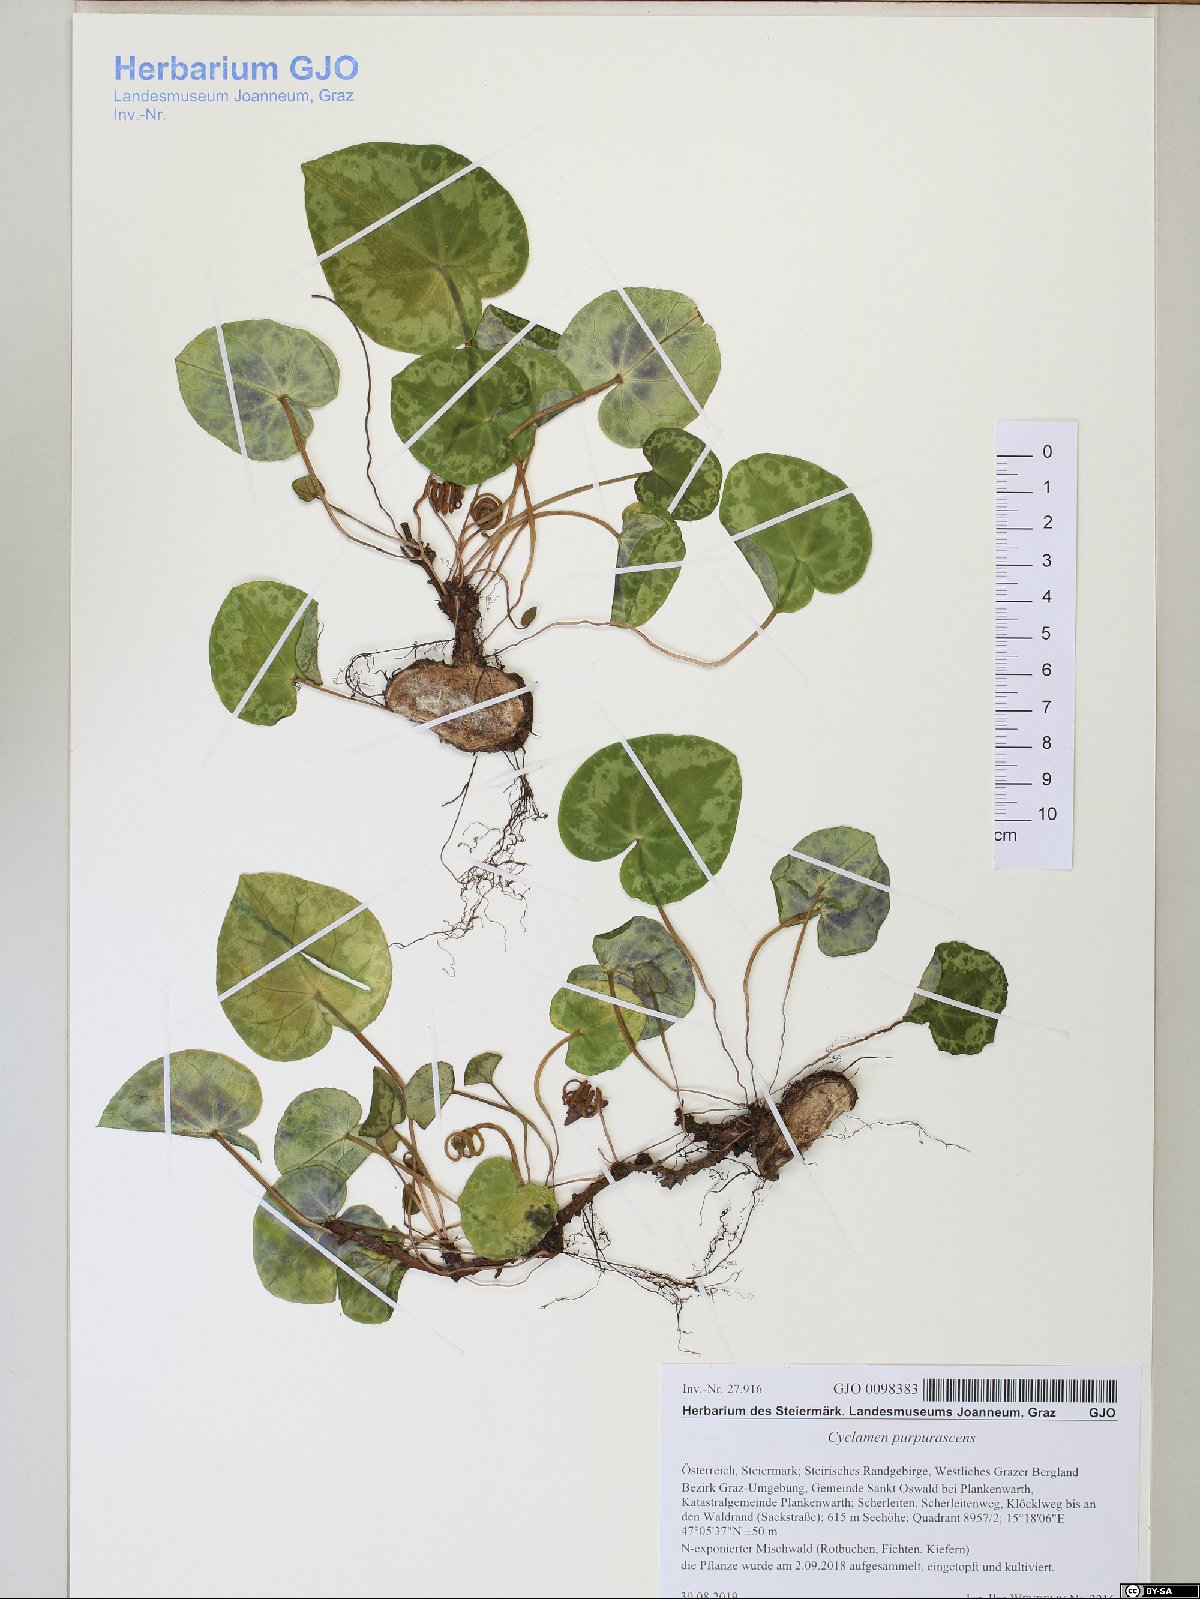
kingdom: Plantae
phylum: Tracheophyta
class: Magnoliopsida
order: Ericales
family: Primulaceae
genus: Cyclamen
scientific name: Cyclamen purpurascens
